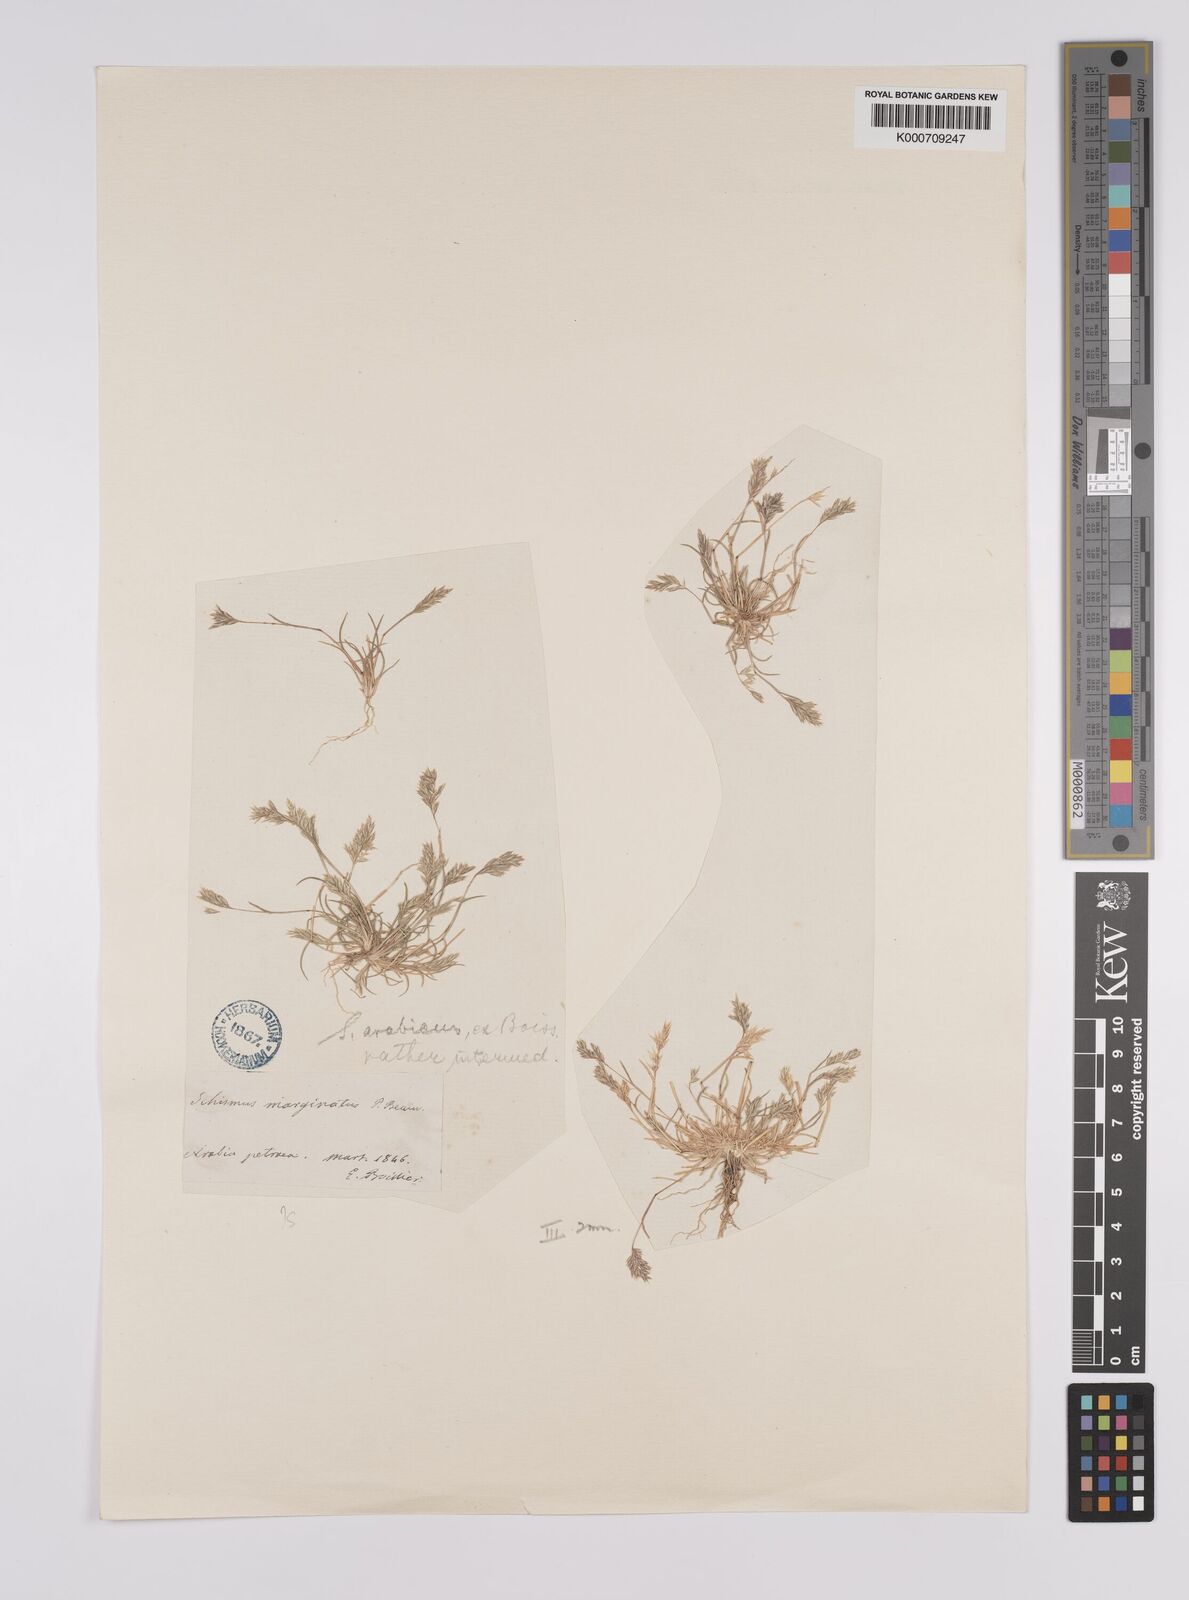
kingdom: Plantae
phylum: Tracheophyta
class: Liliopsida
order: Poales
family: Poaceae
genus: Schismus
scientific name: Schismus barbatus
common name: Kelch-grass
